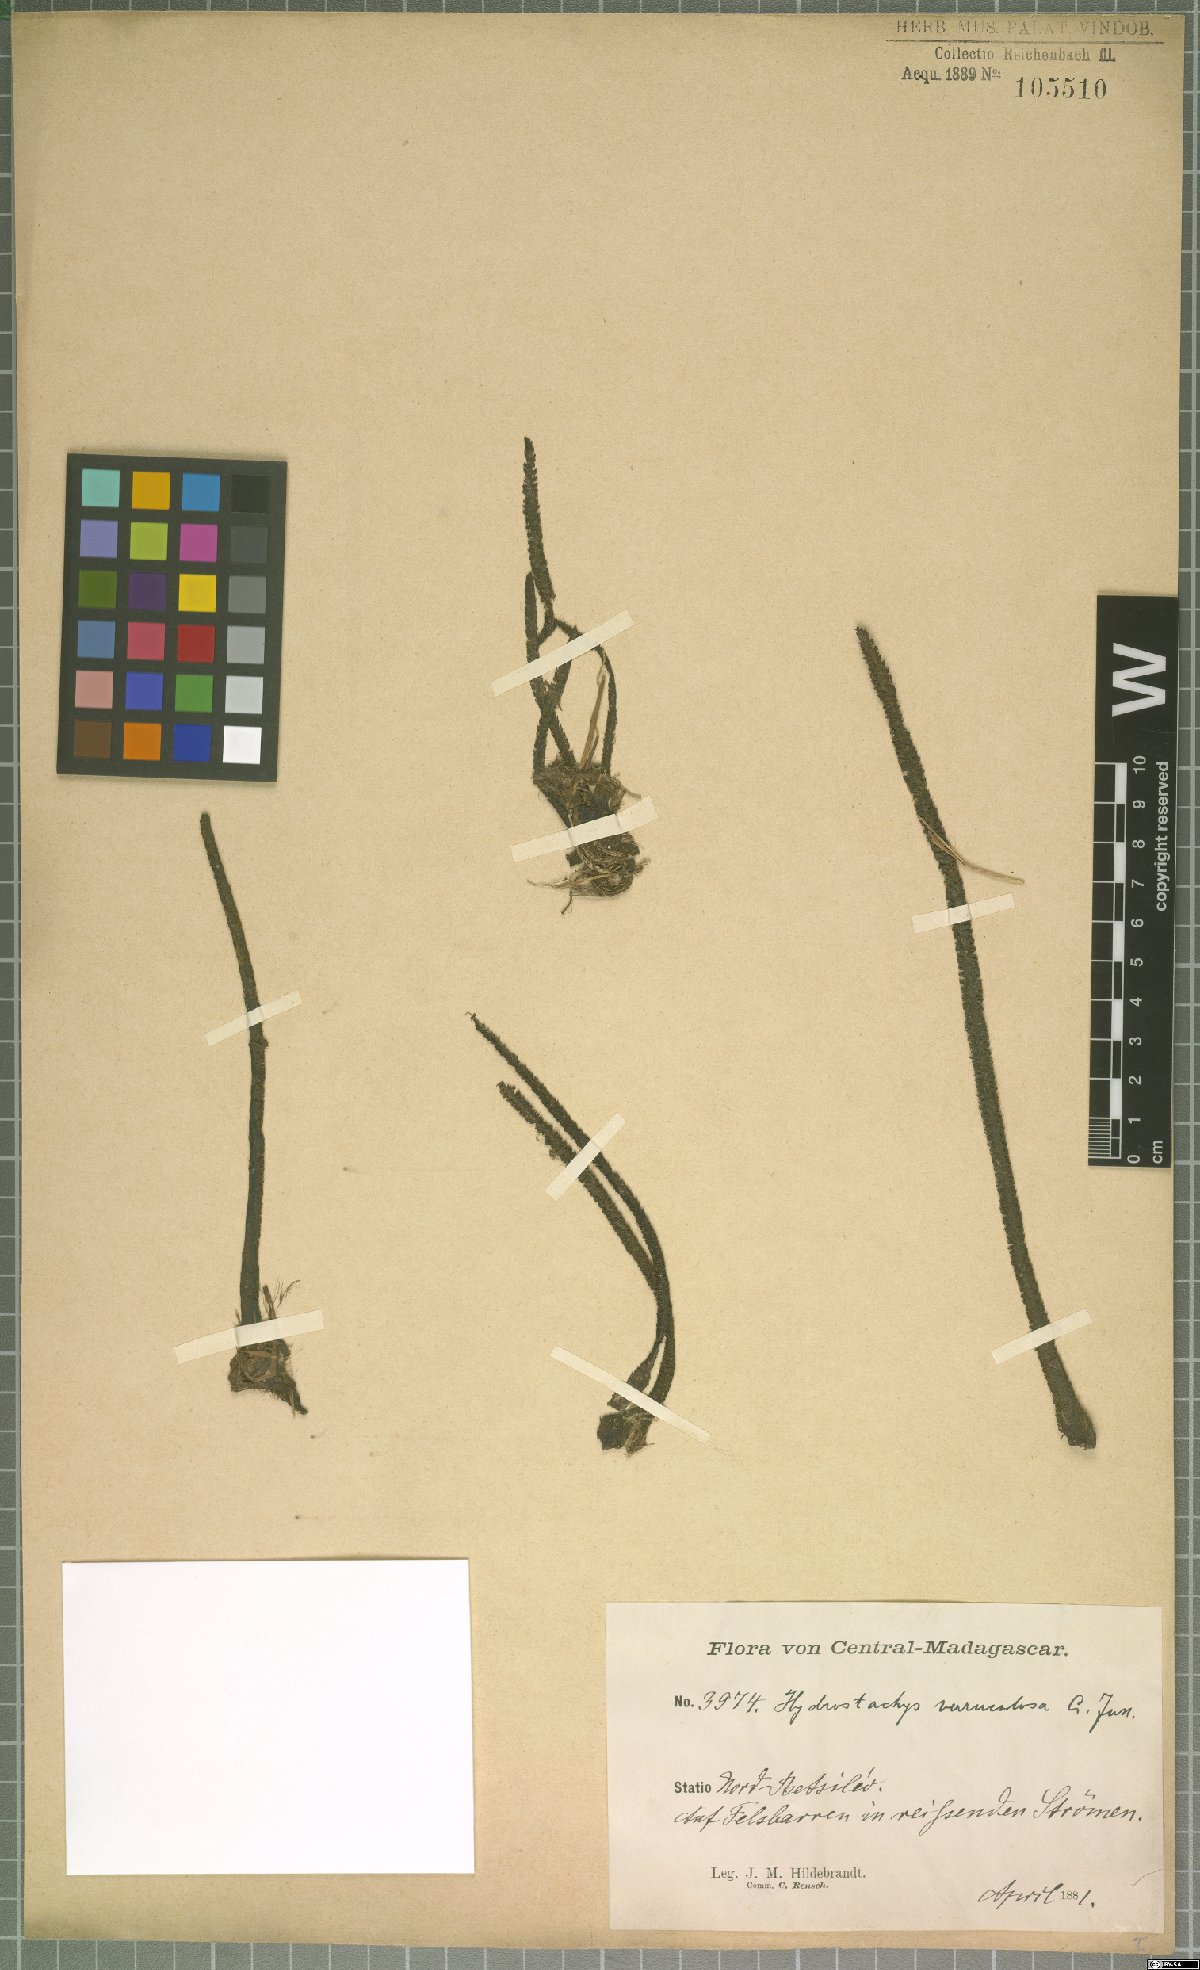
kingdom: Plantae
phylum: Tracheophyta
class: Magnoliopsida
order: Cornales
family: Hydrostachyaceae
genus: Hydrostachys
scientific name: Hydrostachys verruculosa
